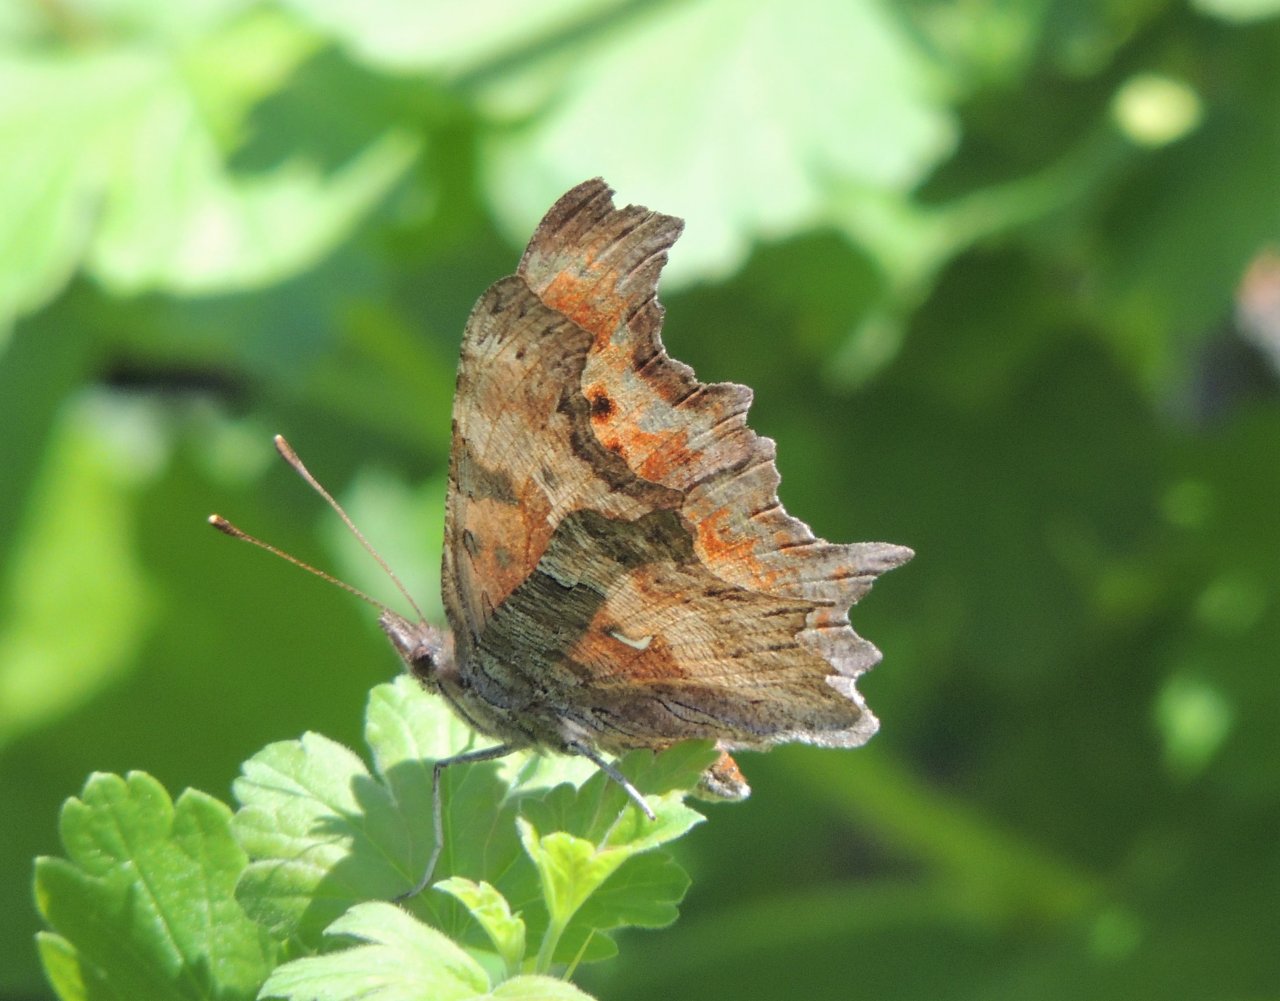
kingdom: Animalia
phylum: Arthropoda
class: Insecta
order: Lepidoptera
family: Nymphalidae
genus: Polygonia
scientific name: Polygonia gracilis
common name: Hoary Comma
